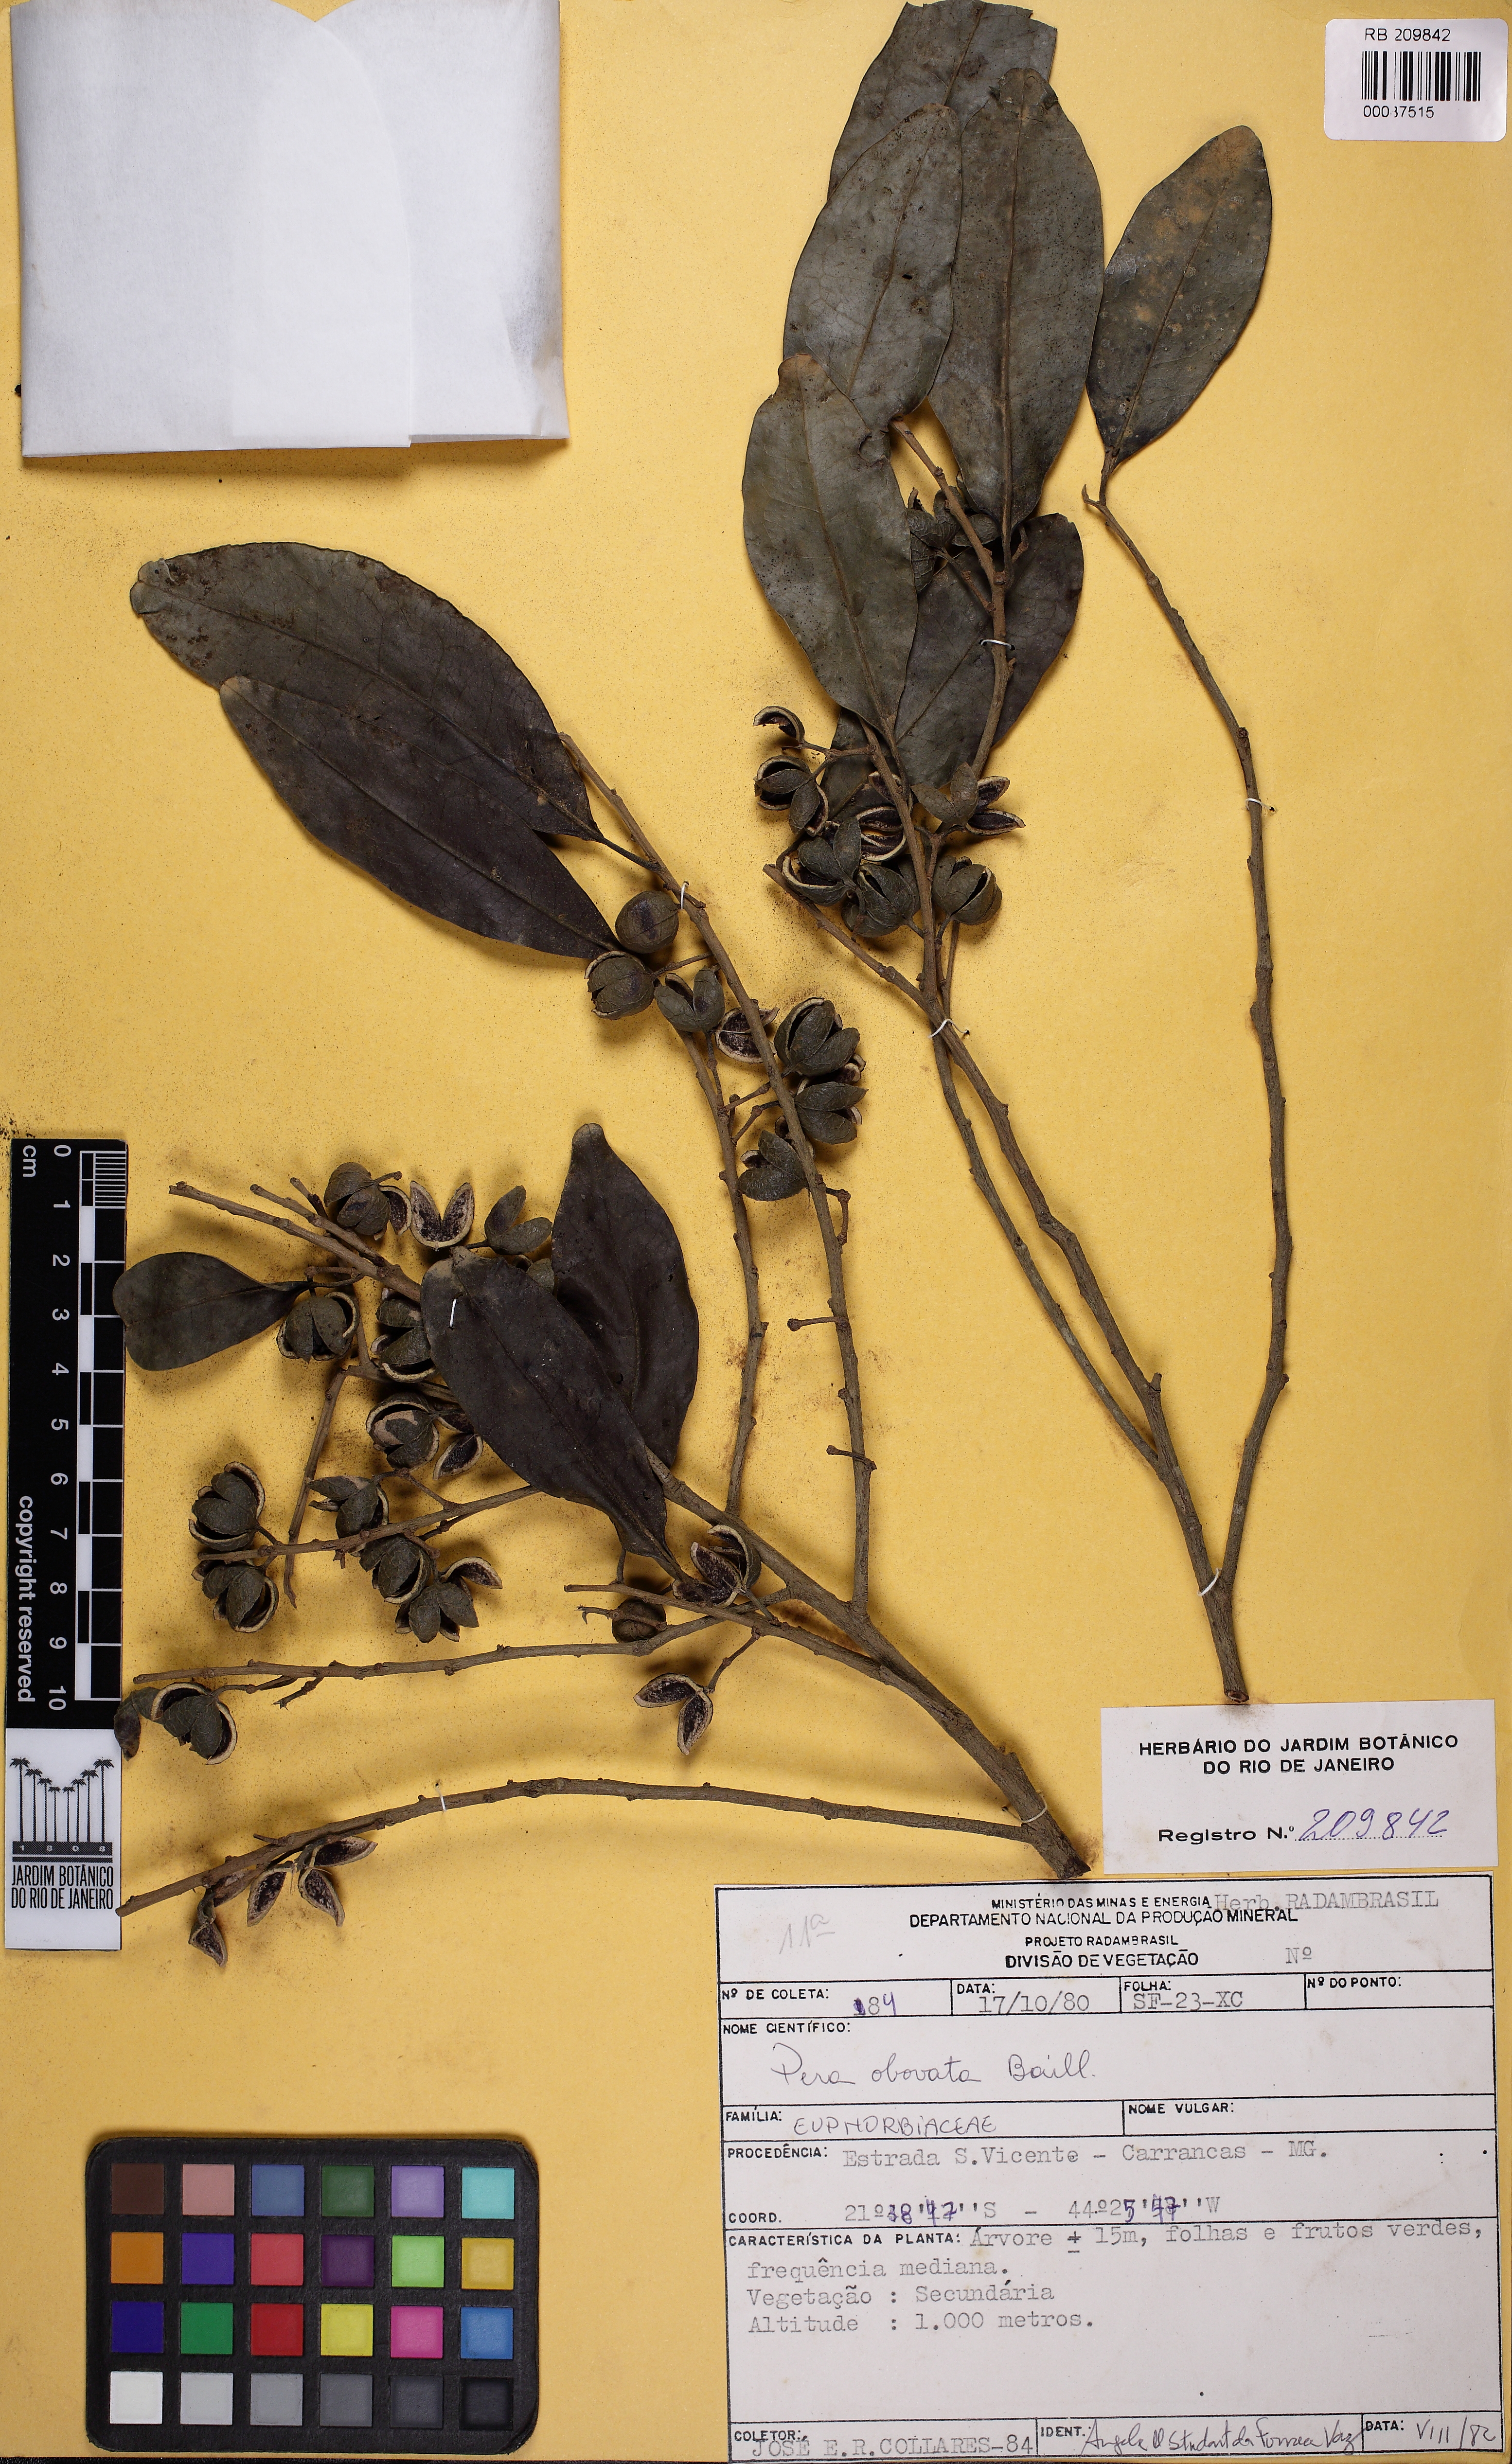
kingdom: Plantae
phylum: Tracheophyta
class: Magnoliopsida
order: Malpighiales
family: Peraceae
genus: Pera
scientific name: Pera glabrata
